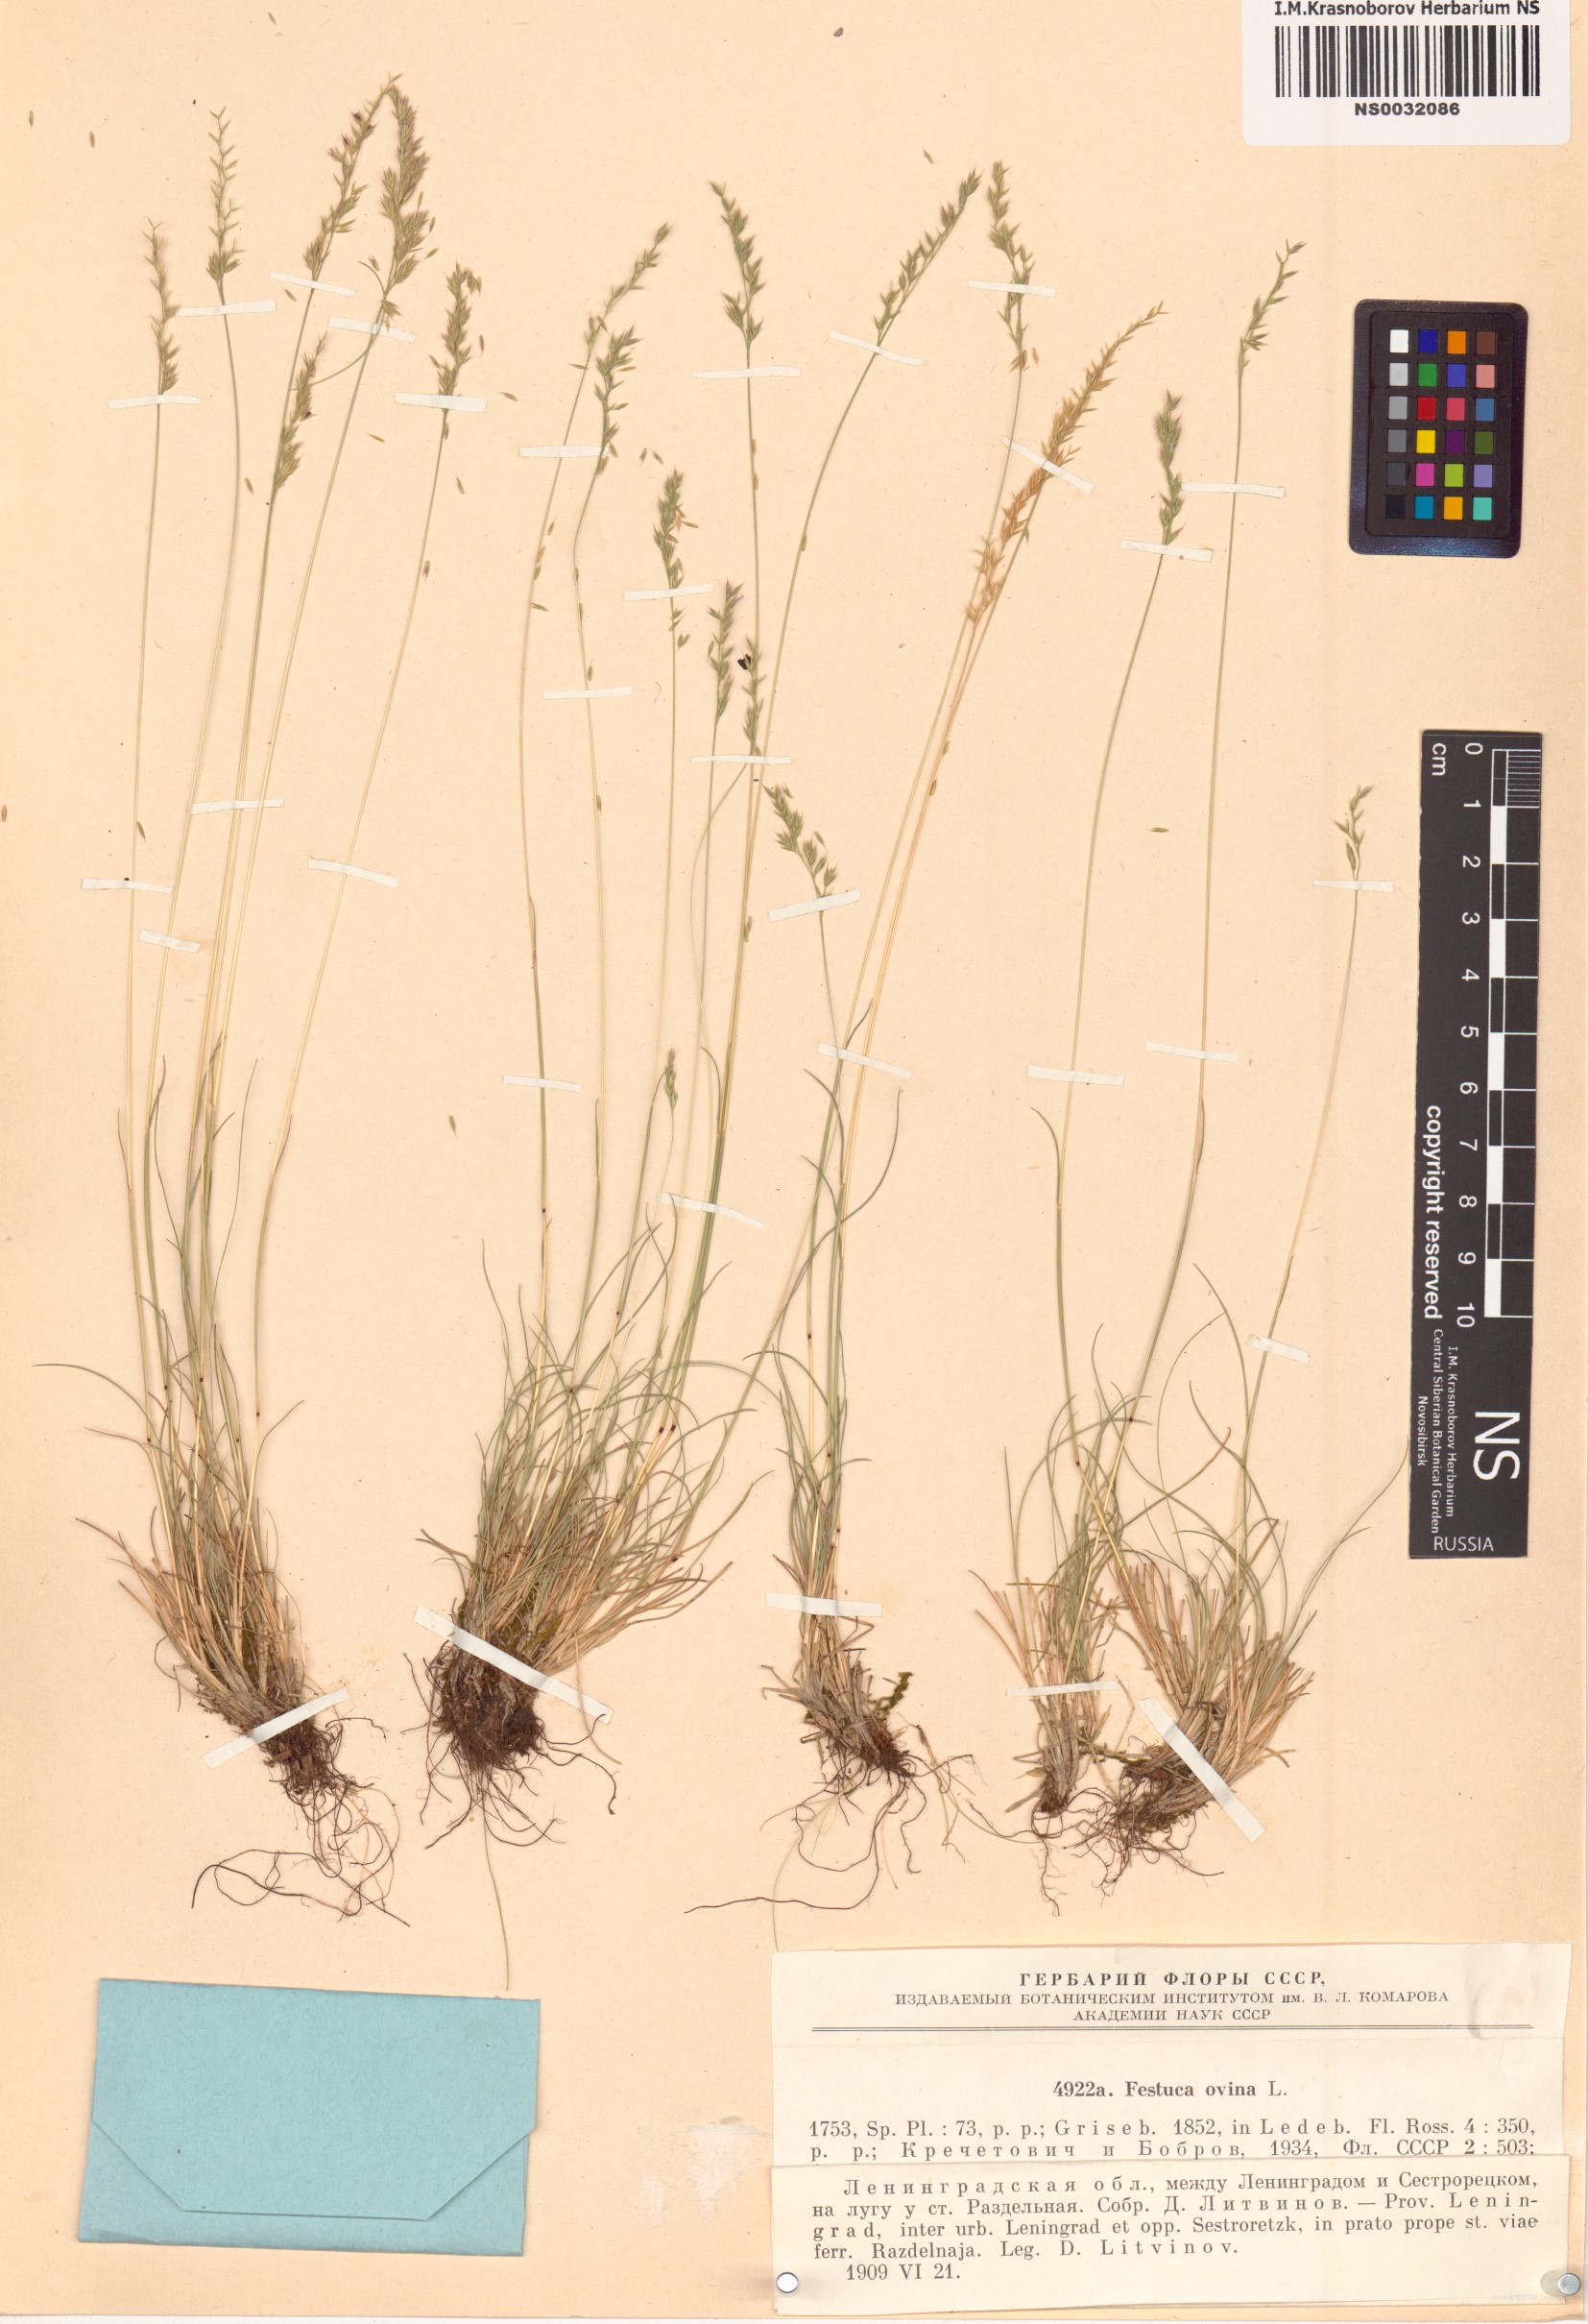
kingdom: Plantae
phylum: Tracheophyta
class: Liliopsida
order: Poales
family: Poaceae
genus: Festuca
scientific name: Festuca ovina
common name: Sheep fescue
